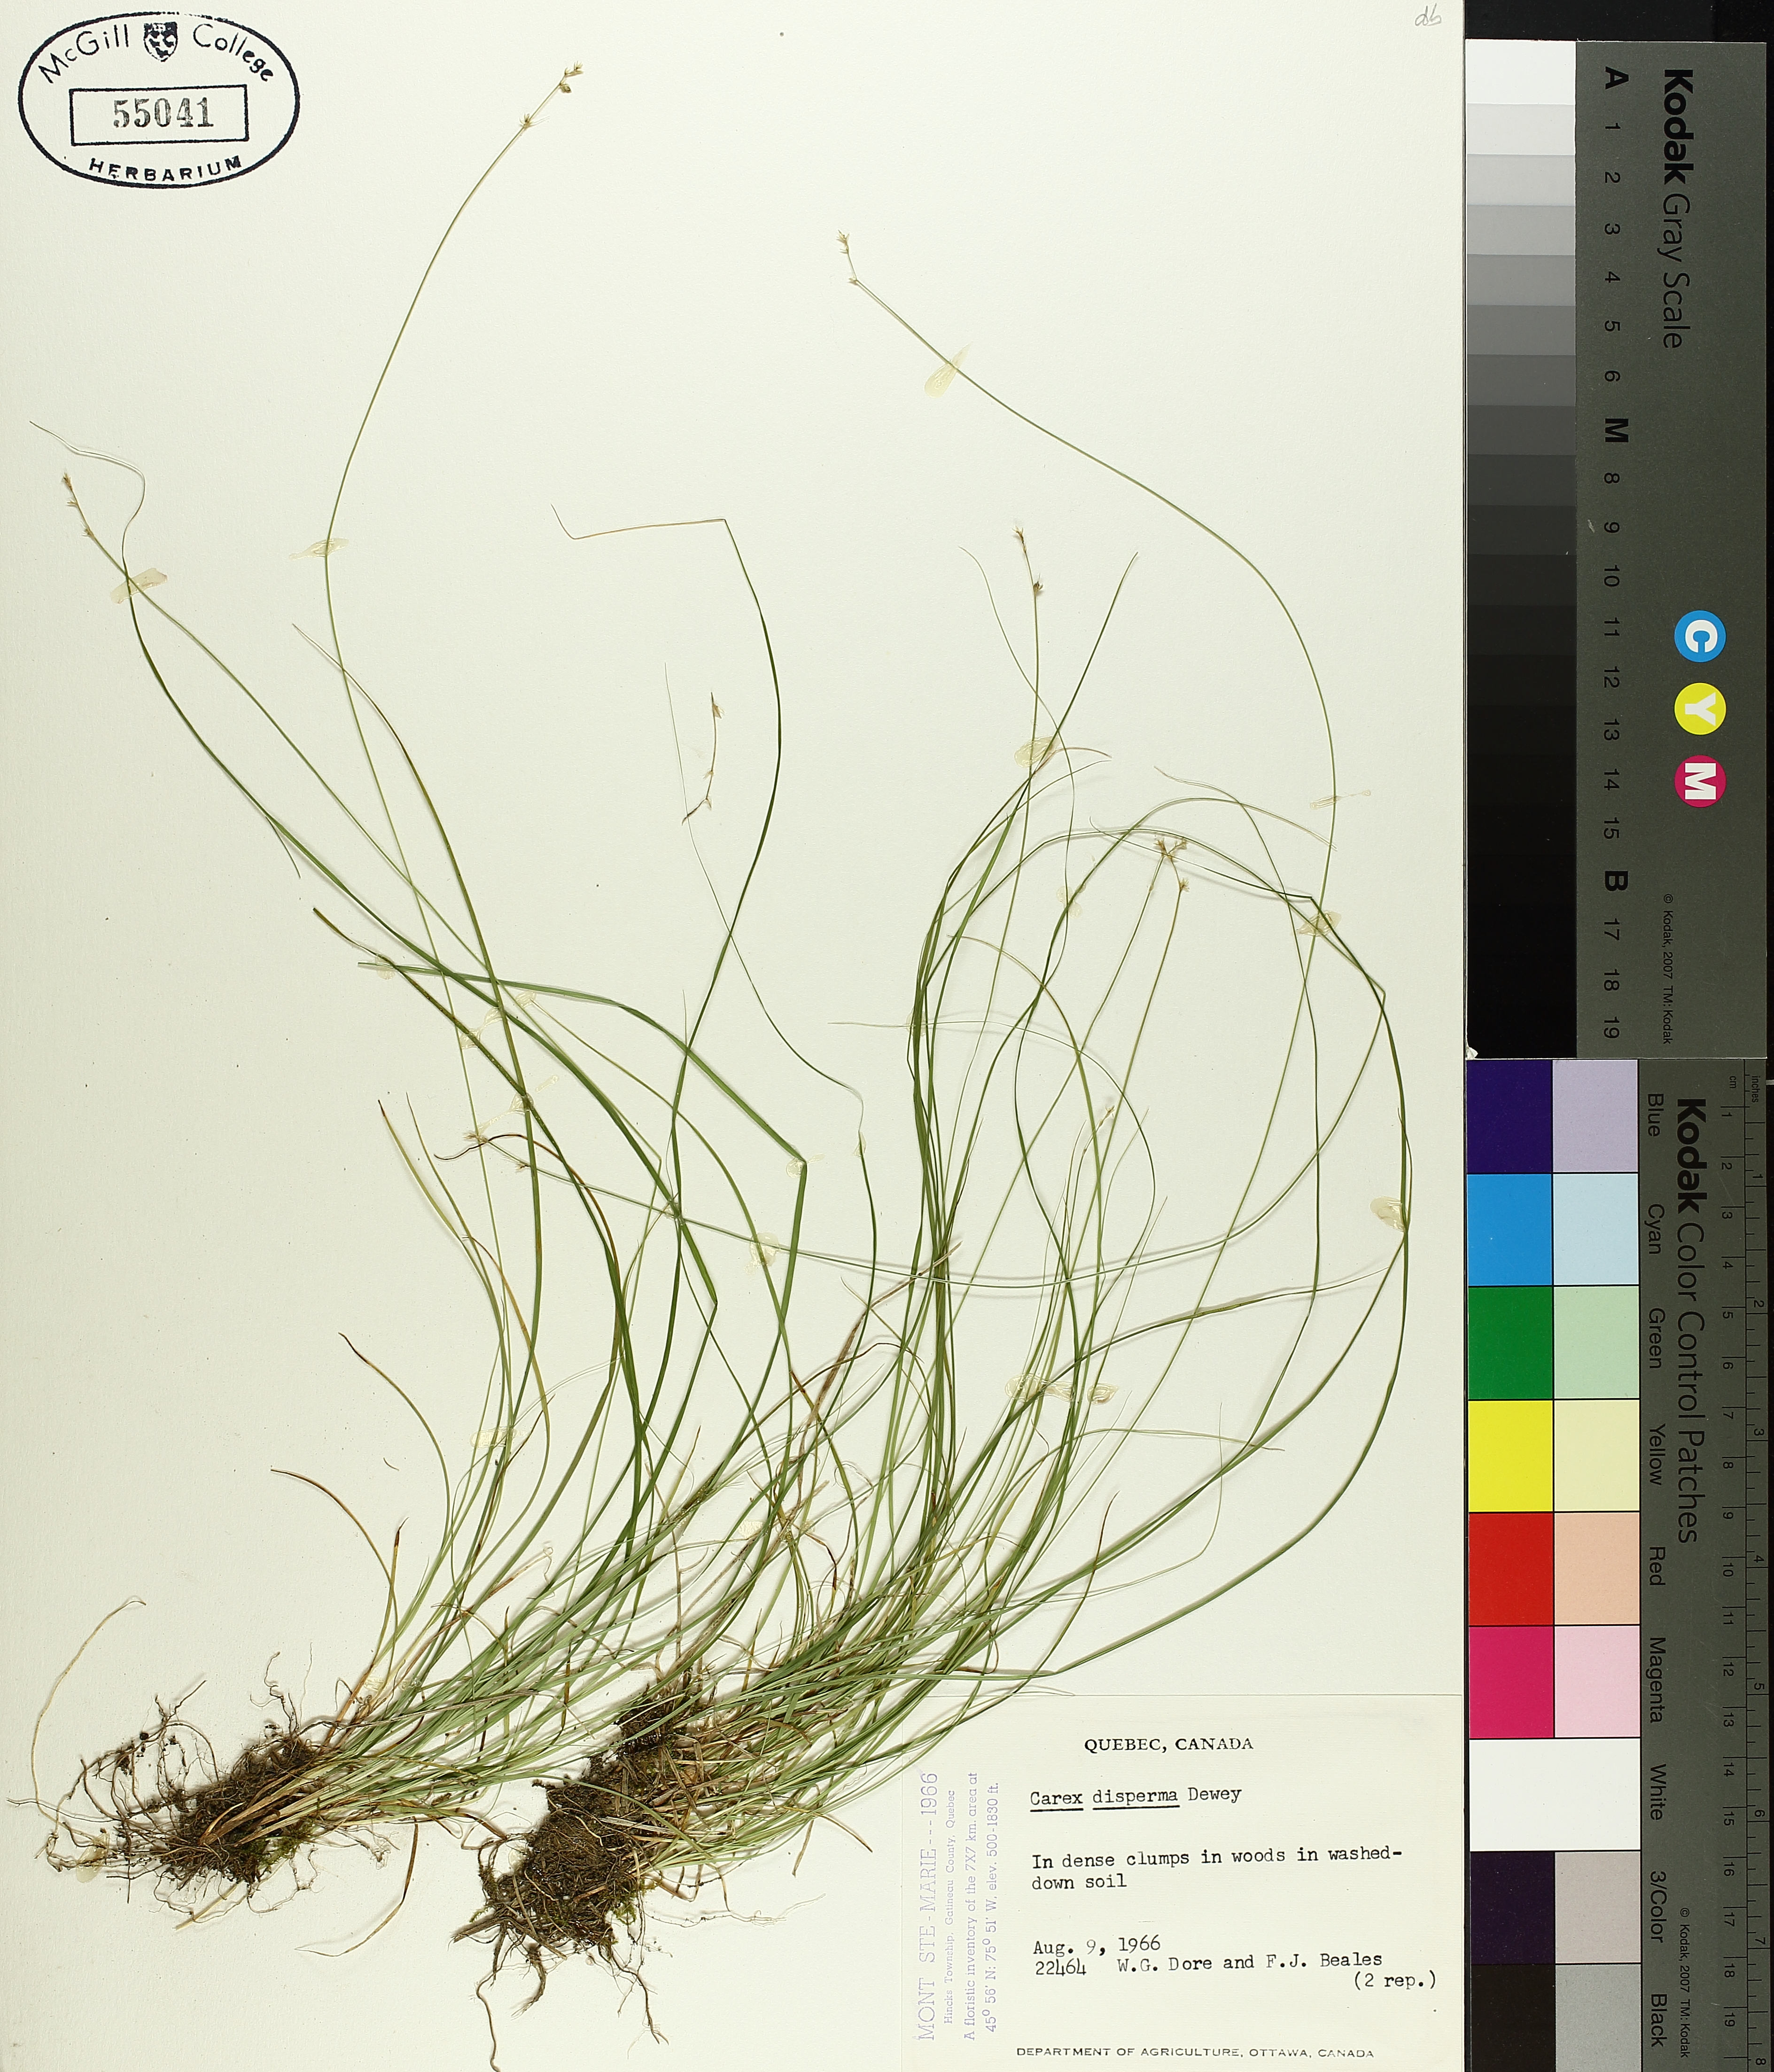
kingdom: Plantae
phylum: Tracheophyta
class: Liliopsida
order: Poales
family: Cyperaceae
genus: Carex
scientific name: Carex disperma
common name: Short-leaved sedge
